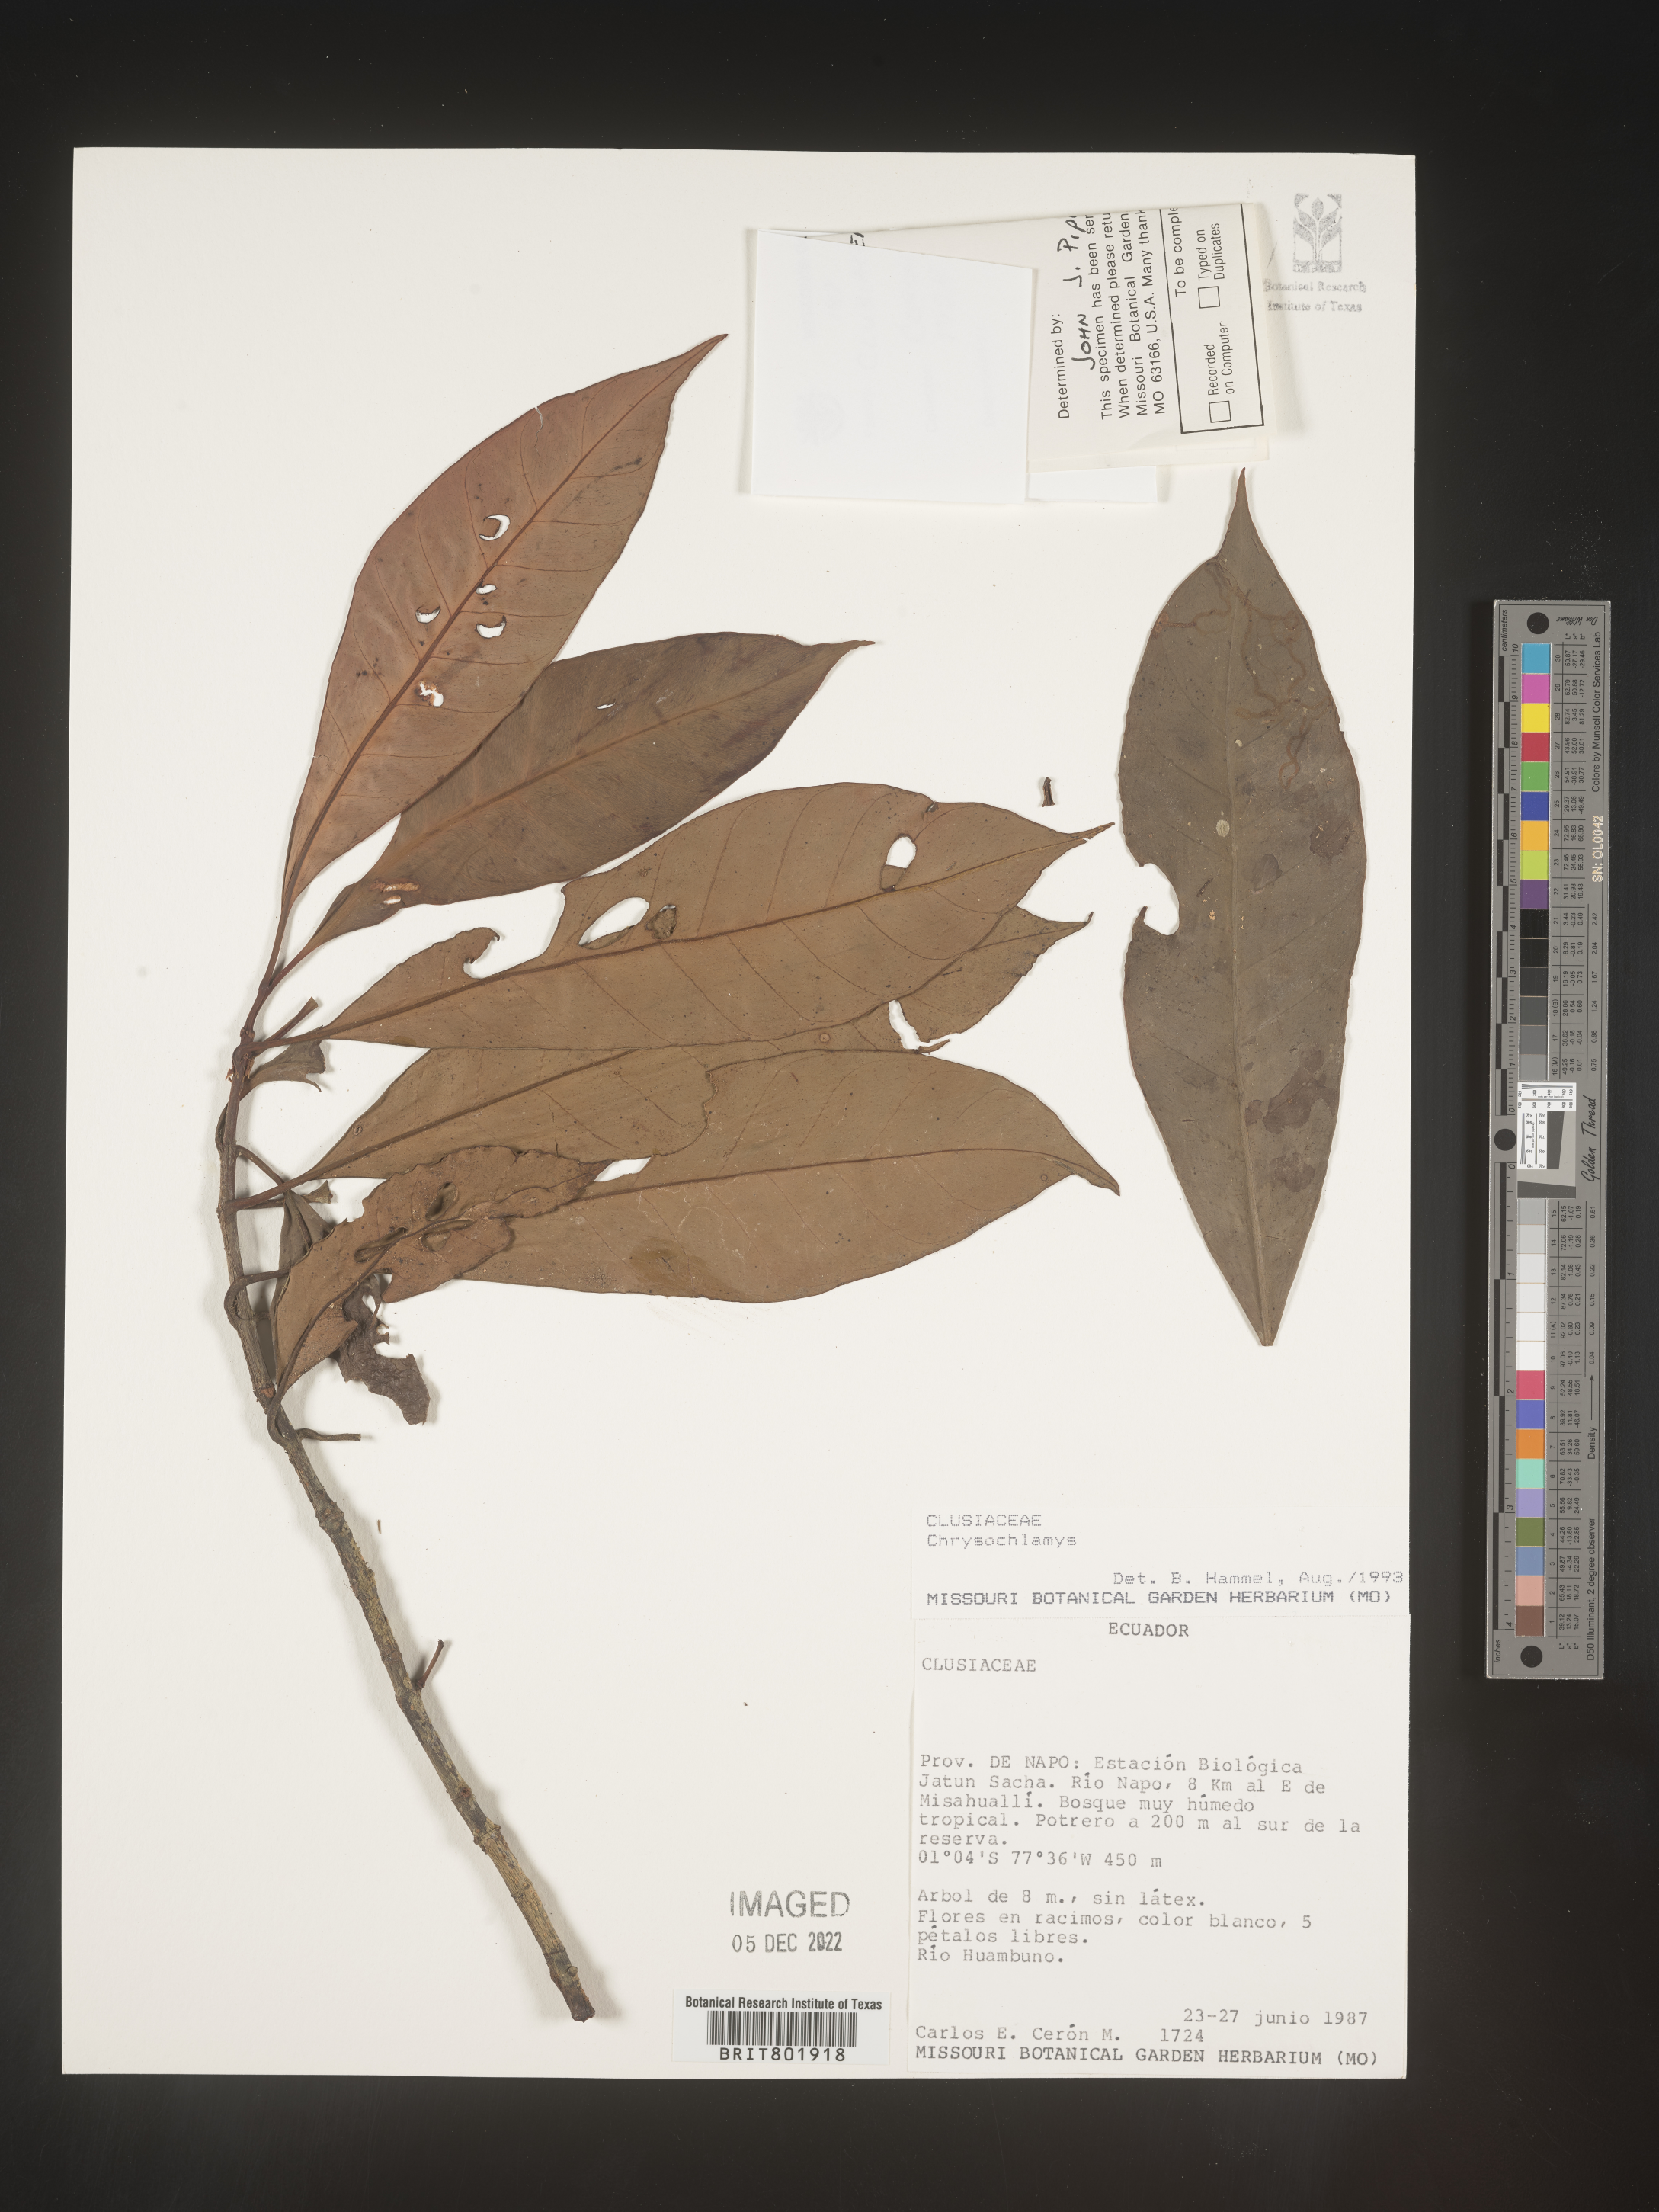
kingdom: Plantae
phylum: Tracheophyta
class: Magnoliopsida
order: Malpighiales
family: Clusiaceae
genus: Chrysochlamys
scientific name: Chrysochlamys
